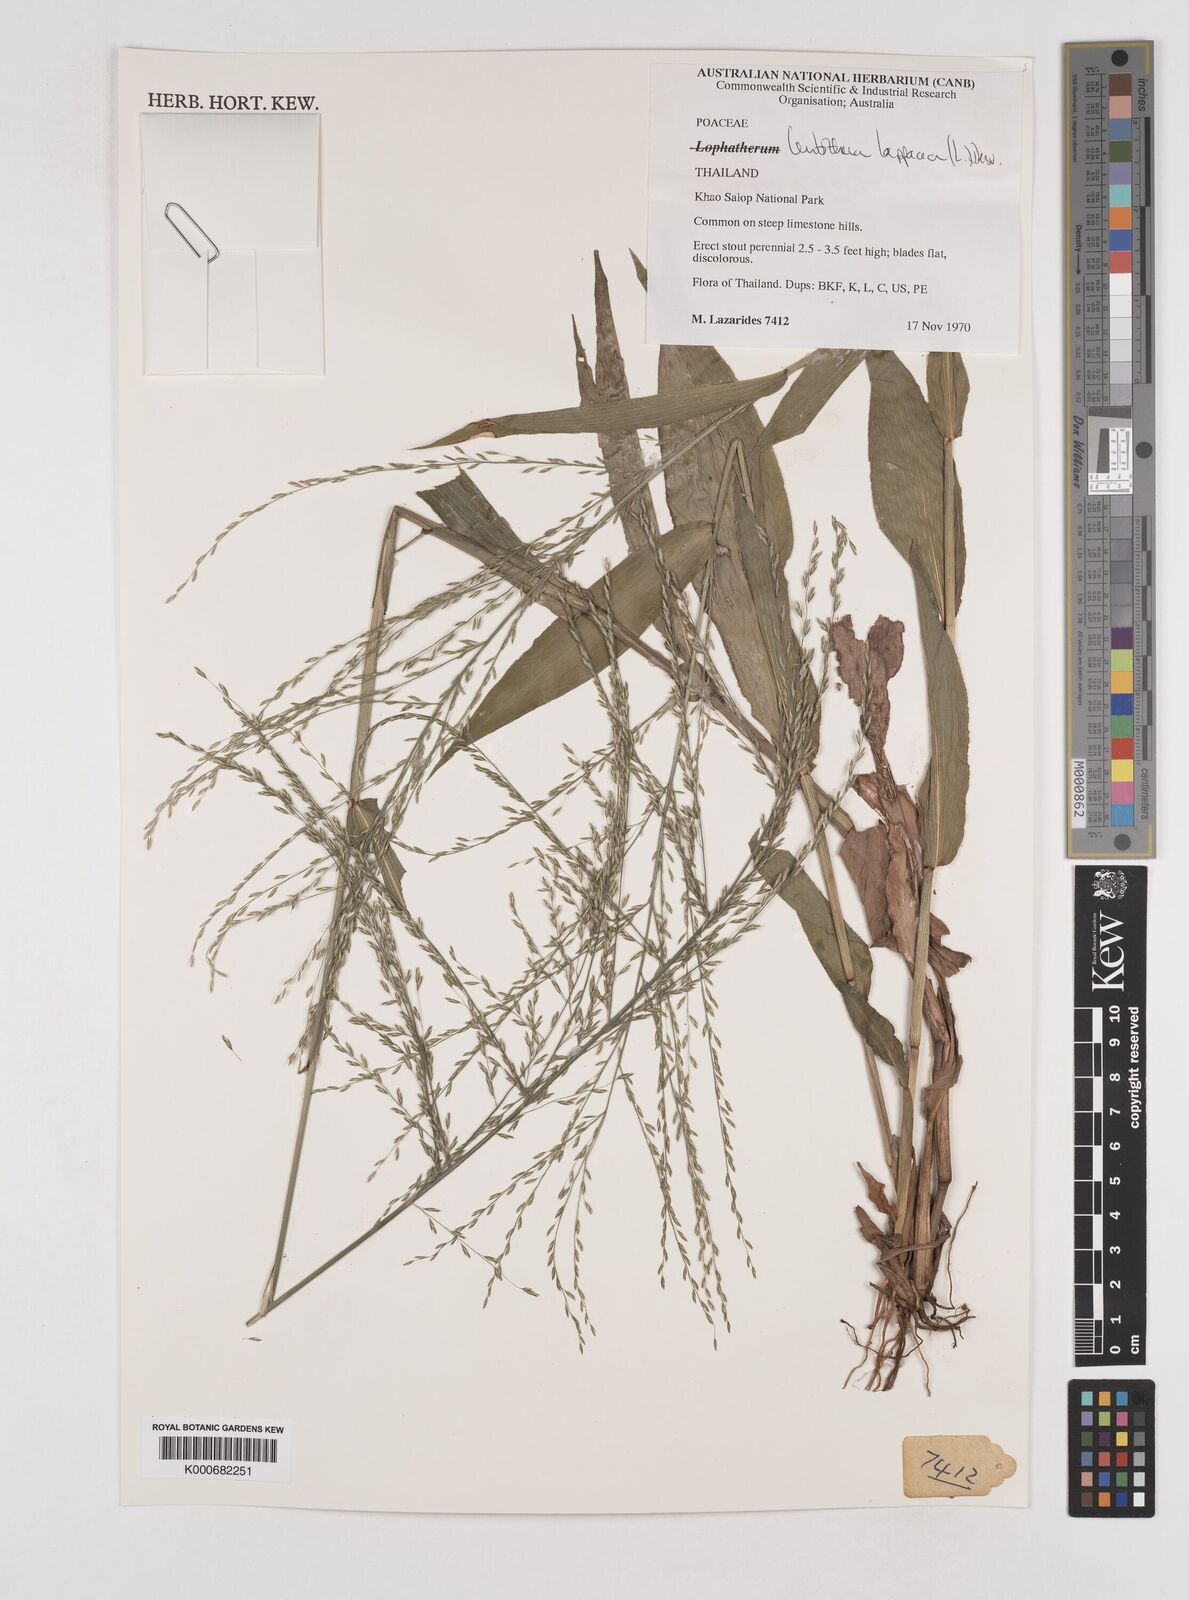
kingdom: Plantae
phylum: Tracheophyta
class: Liliopsida
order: Poales
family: Poaceae
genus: Centotheca
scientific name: Centotheca lappacea
